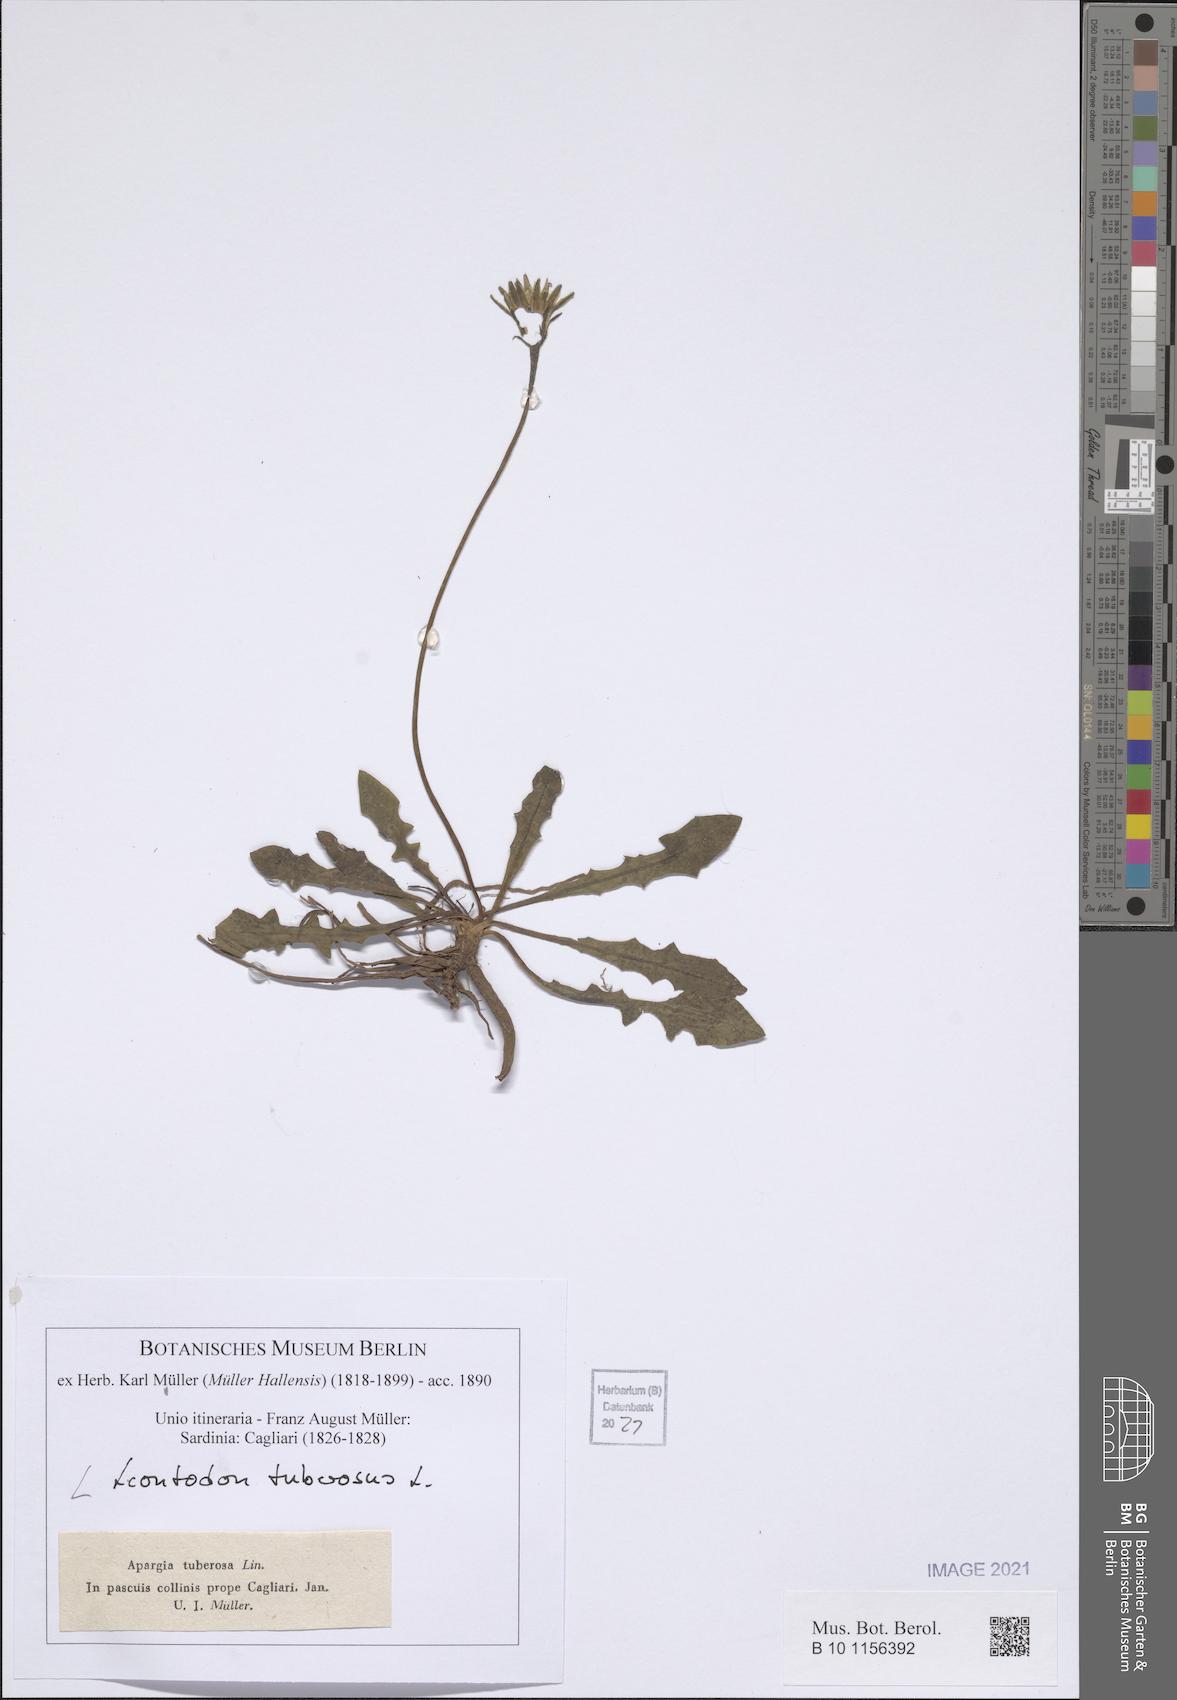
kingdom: Plantae
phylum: Tracheophyta
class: Magnoliopsida
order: Asterales
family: Asteraceae
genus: Thrincia
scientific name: Thrincia tuberosa
